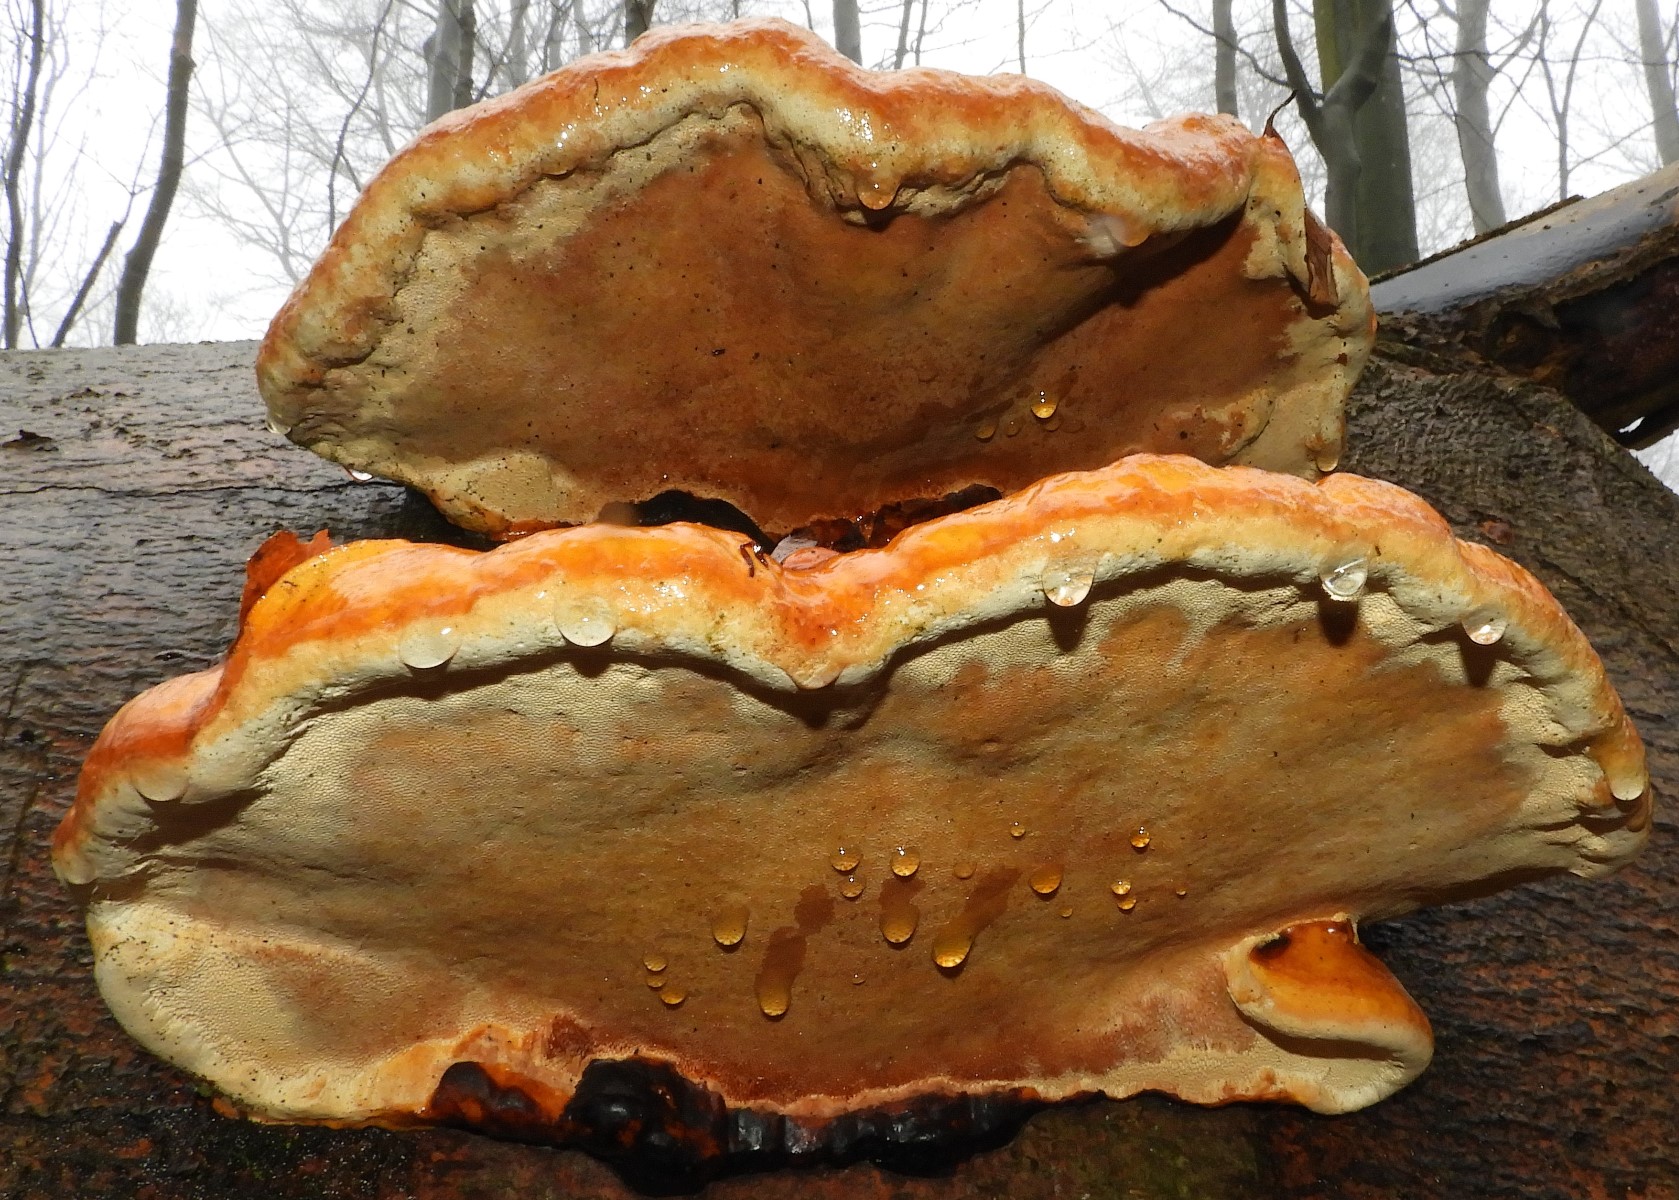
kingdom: Fungi
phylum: Basidiomycota
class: Agaricomycetes
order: Polyporales
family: Fomitopsidaceae
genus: Fomitopsis
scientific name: Fomitopsis pinicola
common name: randbæltet hovporesvamp
